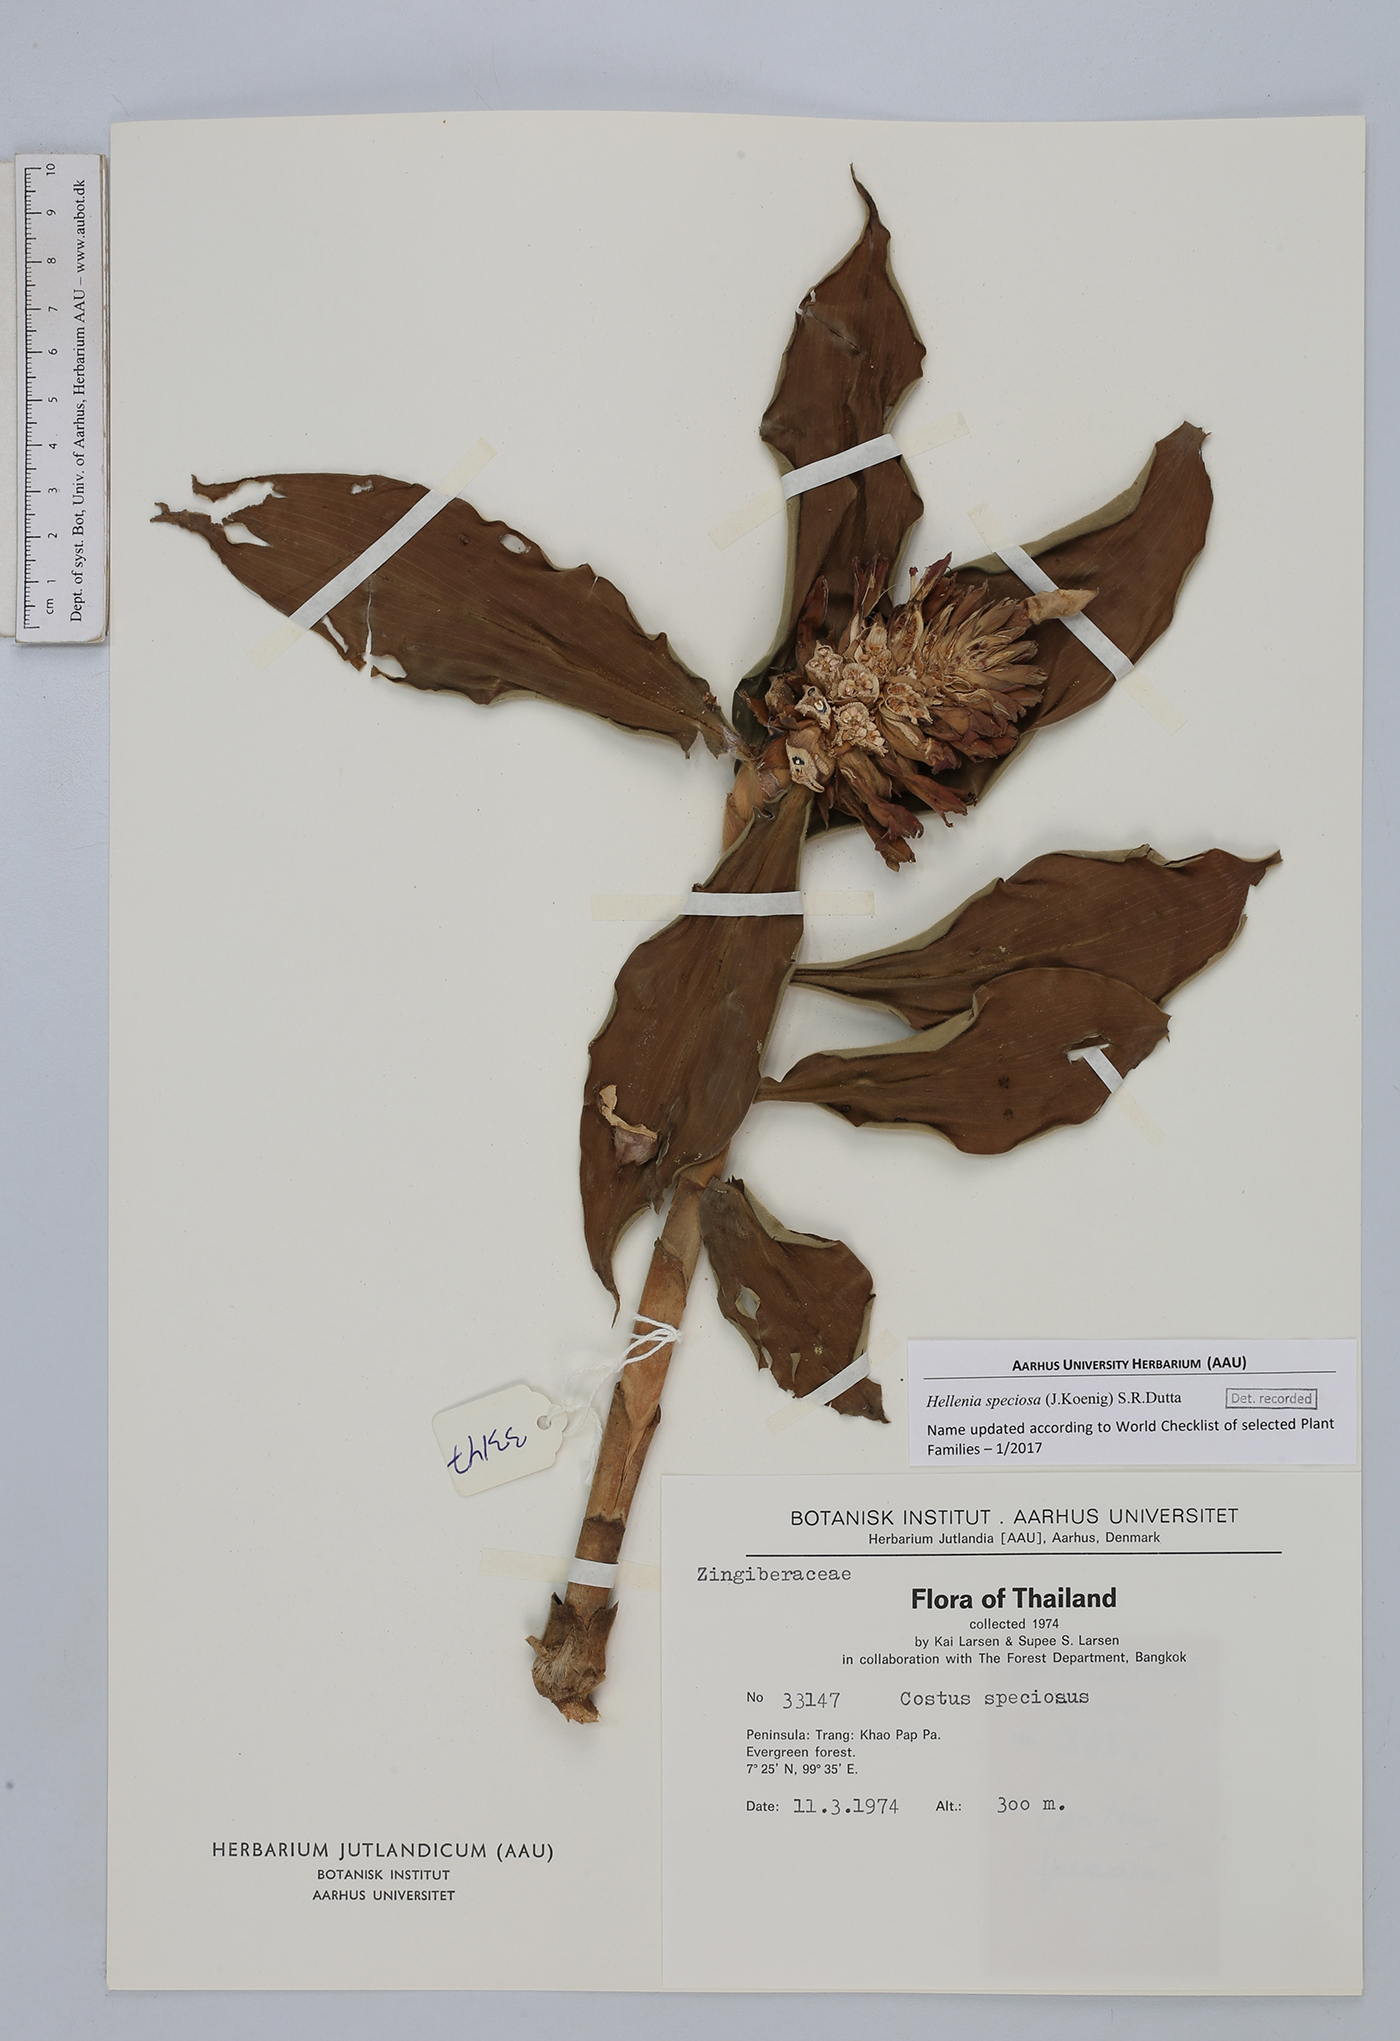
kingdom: Plantae
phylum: Tracheophyta
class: Liliopsida
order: Zingiberales
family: Costaceae
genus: Hellenia
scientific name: Hellenia speciosa
